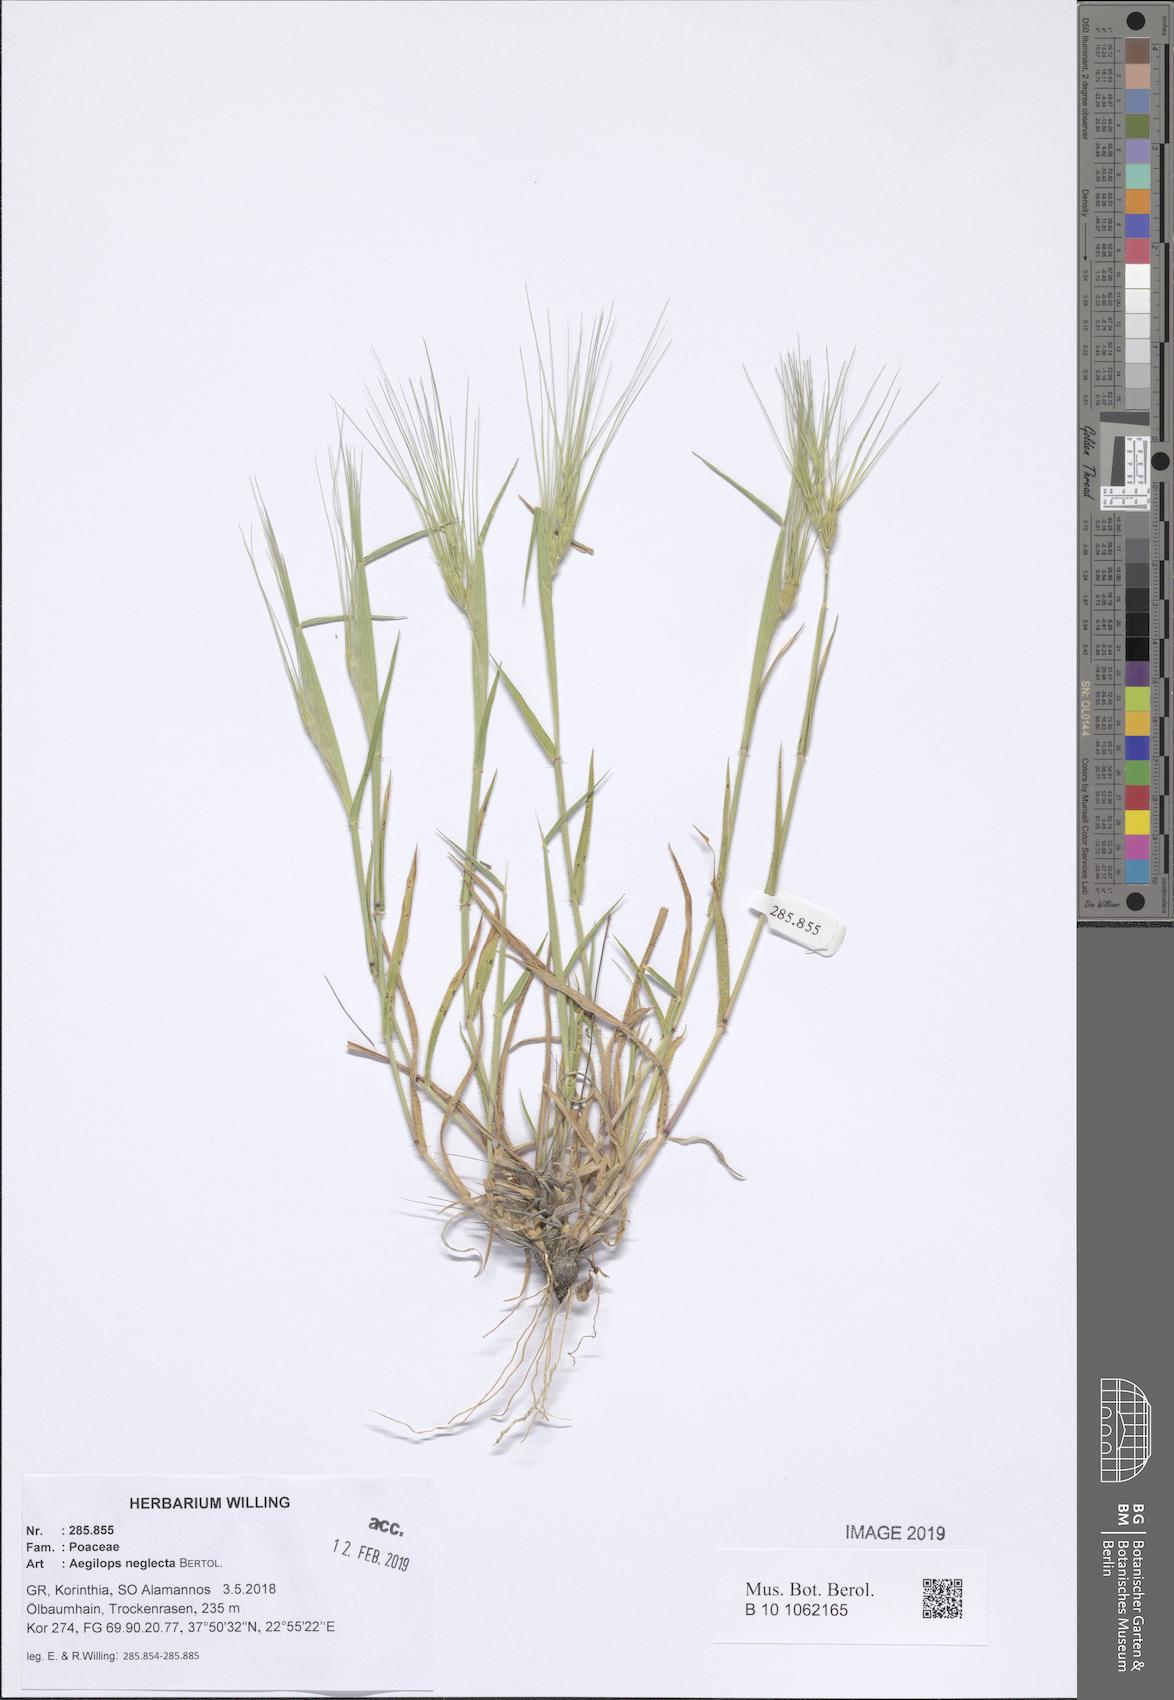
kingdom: Plantae
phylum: Tracheophyta
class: Liliopsida
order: Poales
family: Poaceae
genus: Aegilops
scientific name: Aegilops neglecta
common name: Three-awn goat grass
